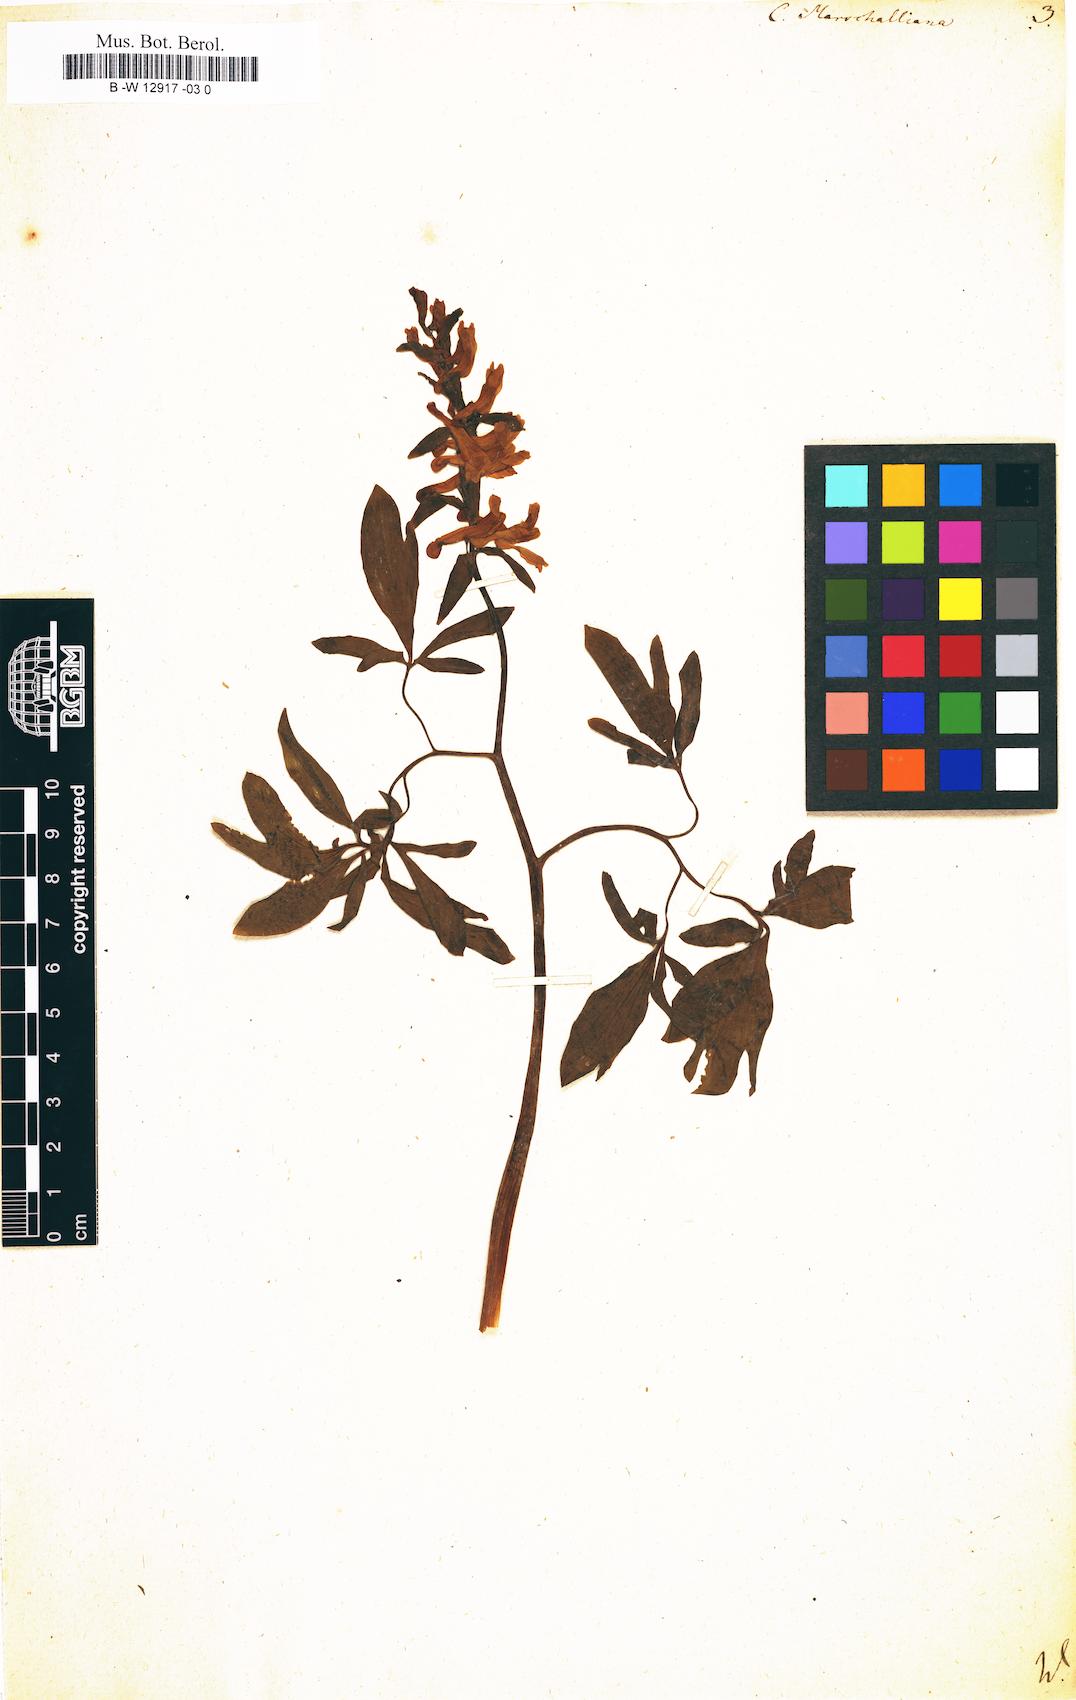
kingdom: Plantae
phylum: Tracheophyta
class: Magnoliopsida
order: Ranunculales
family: Papaveraceae
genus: Fumaria
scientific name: Fumaria marschalliana
